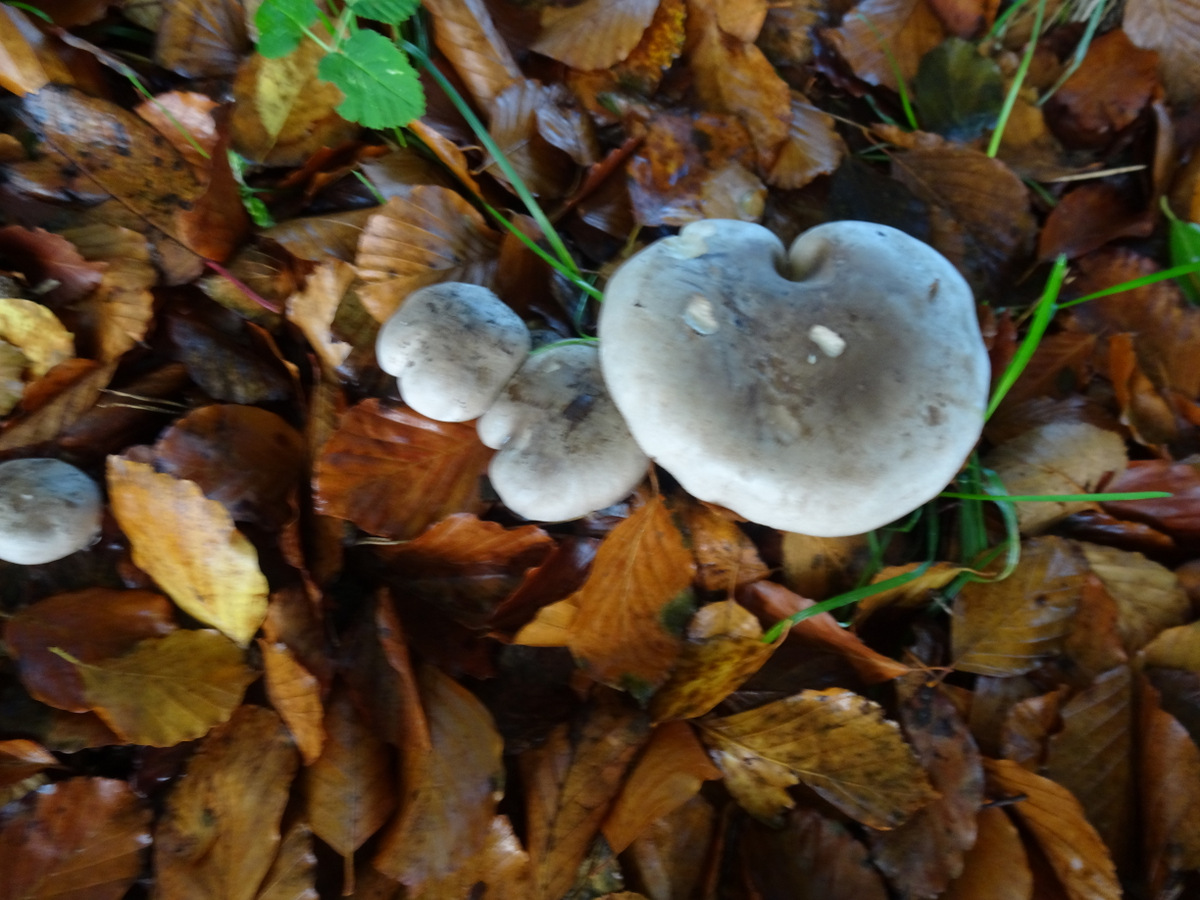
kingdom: Fungi
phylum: Basidiomycota
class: Agaricomycetes
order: Agaricales
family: Tricholomataceae
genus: Clitocybe
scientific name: Clitocybe nebularis
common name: tåge-tragthat
